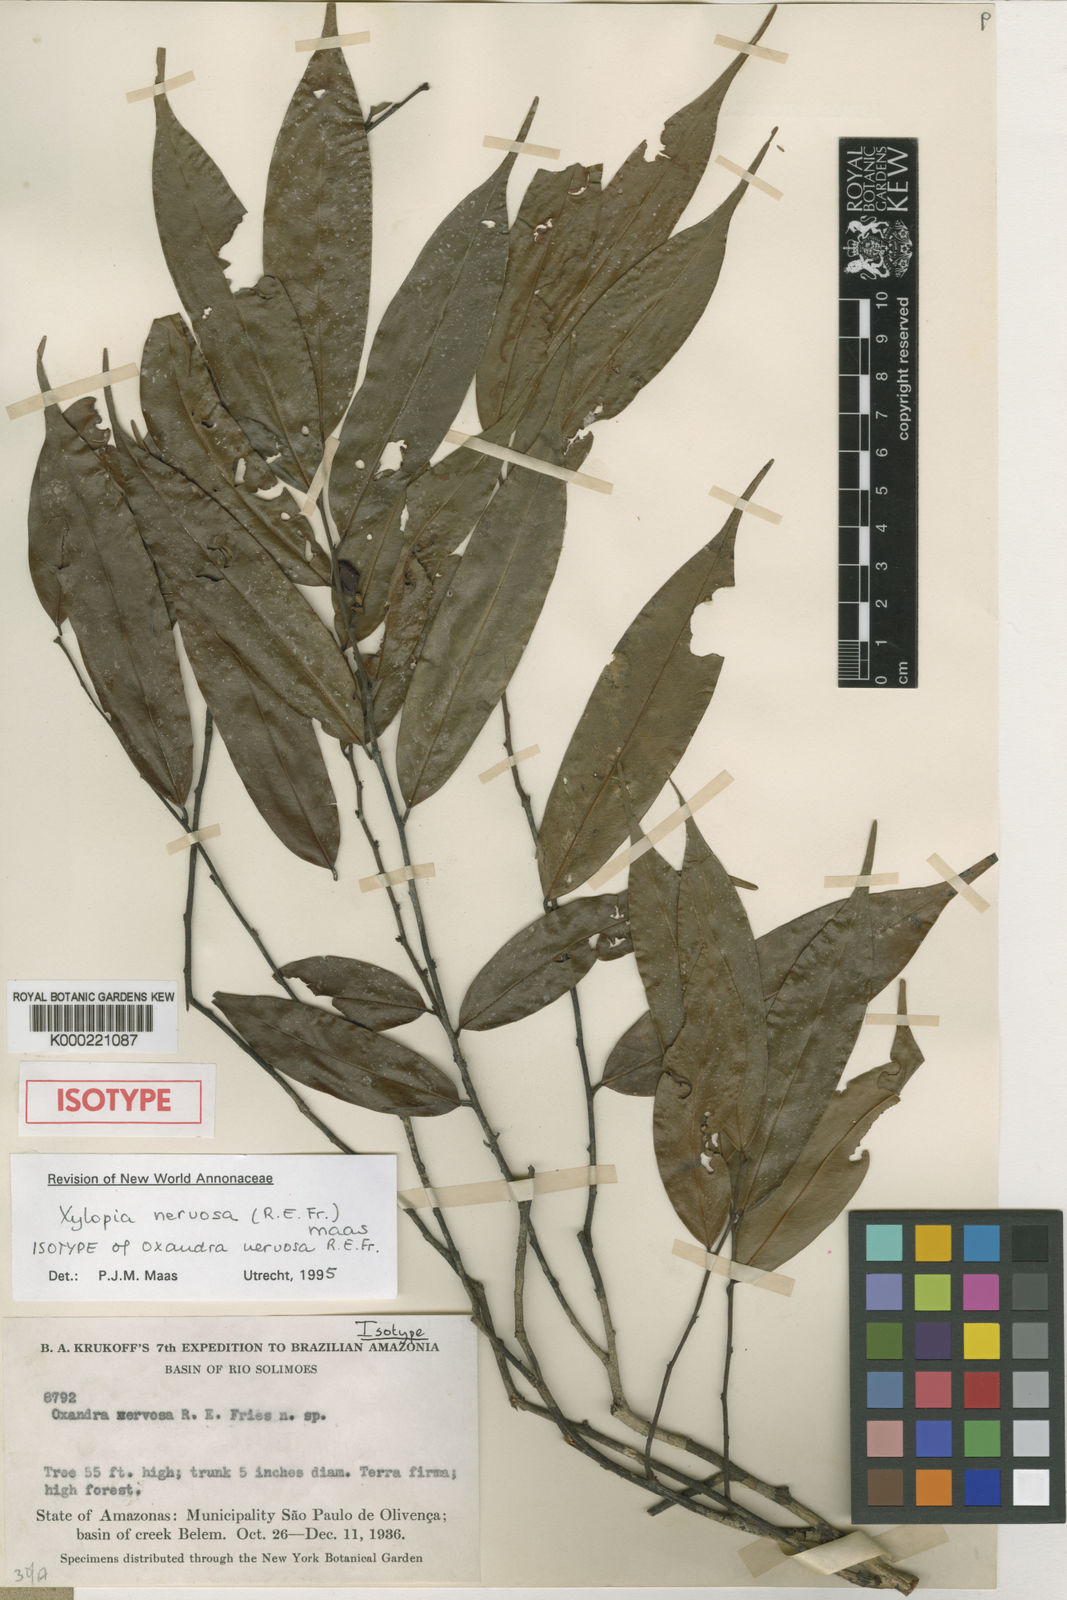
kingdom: Plantae
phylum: Tracheophyta
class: Magnoliopsida
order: Magnoliales
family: Annonaceae
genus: Xylopia
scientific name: Xylopia nervosa
